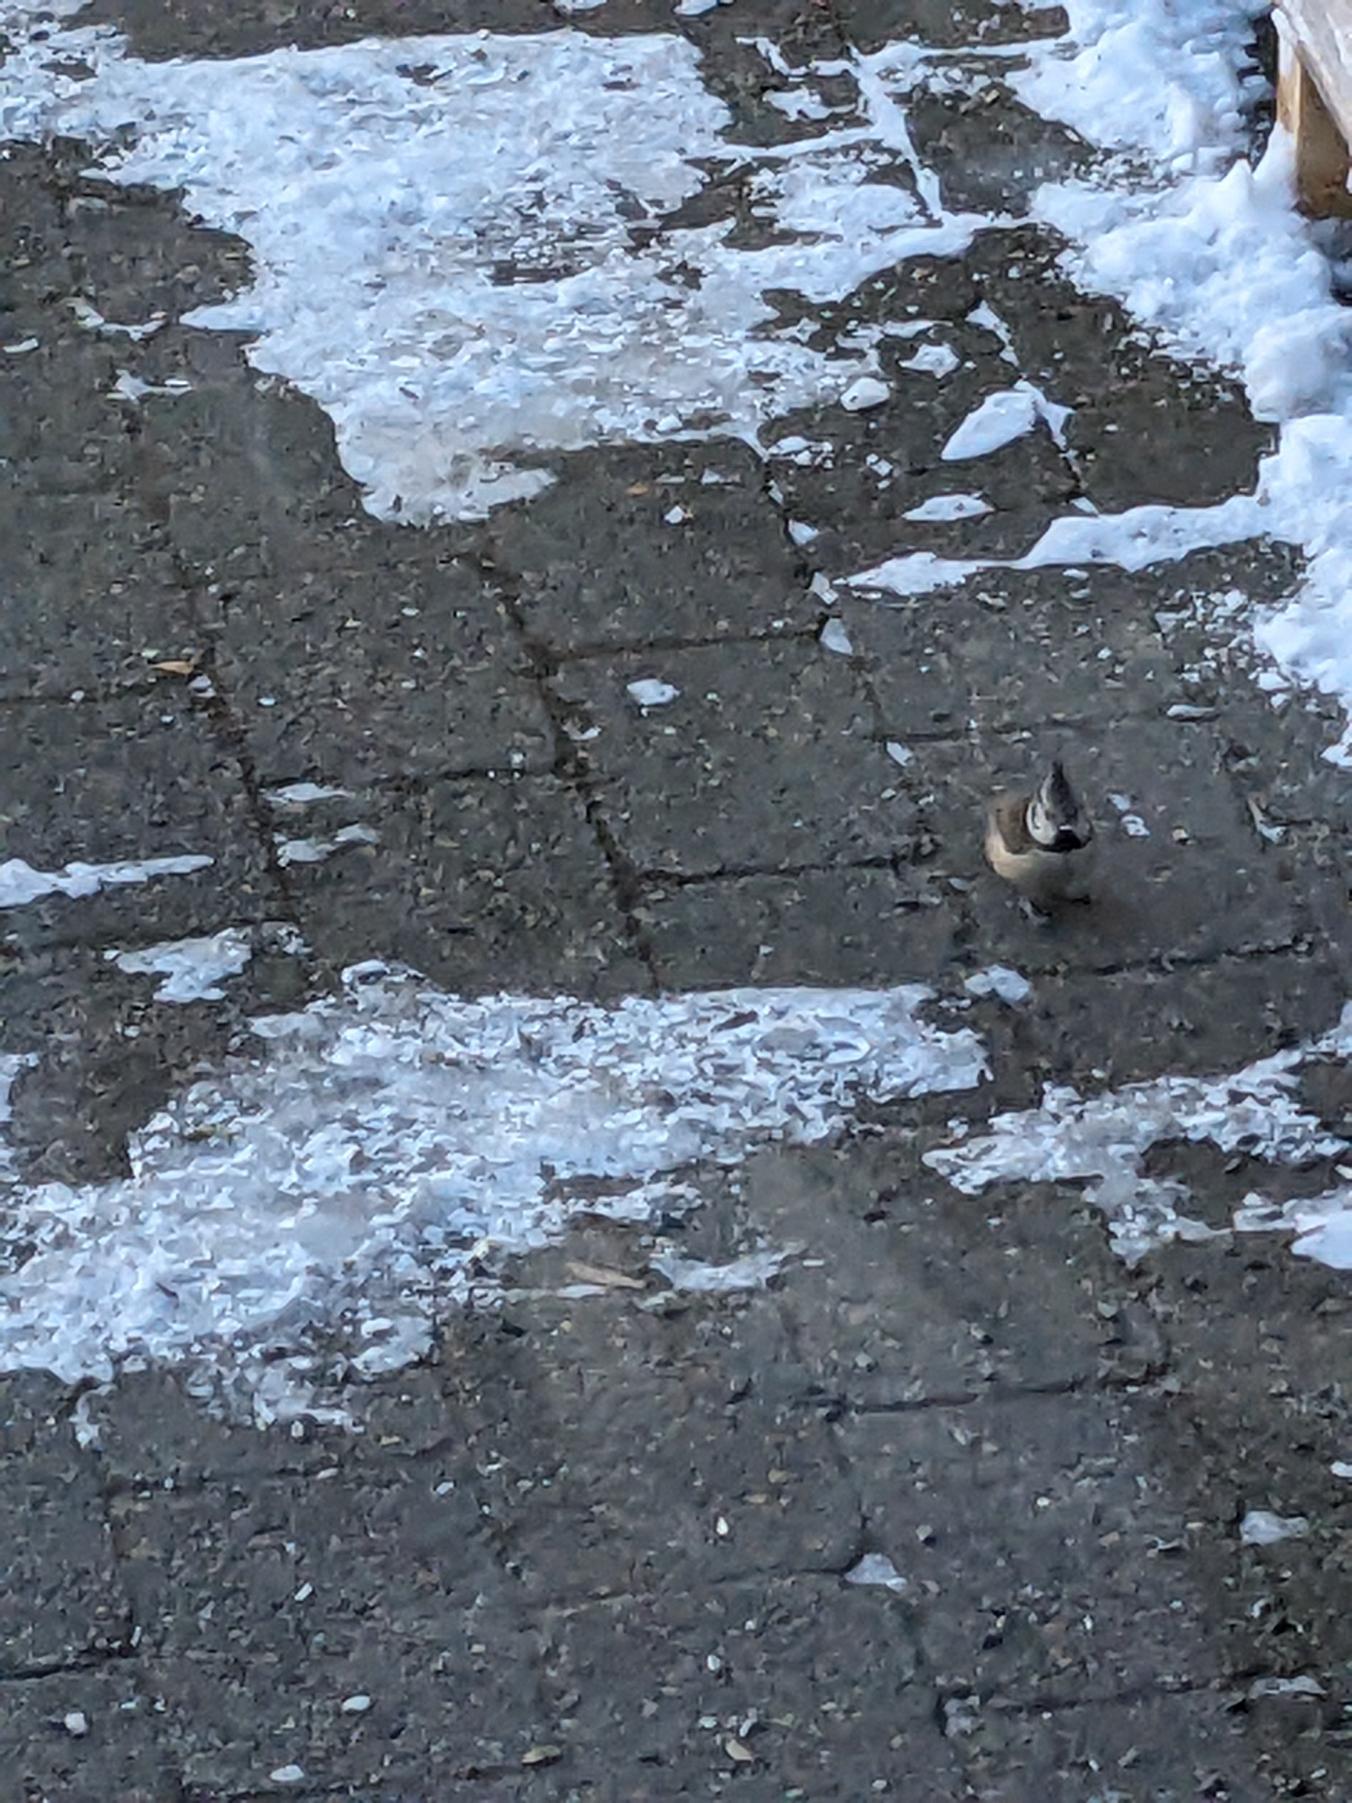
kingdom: Animalia
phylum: Chordata
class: Aves
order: Passeriformes
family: Paridae
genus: Lophophanes
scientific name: Lophophanes cristatus
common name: Topmejse
